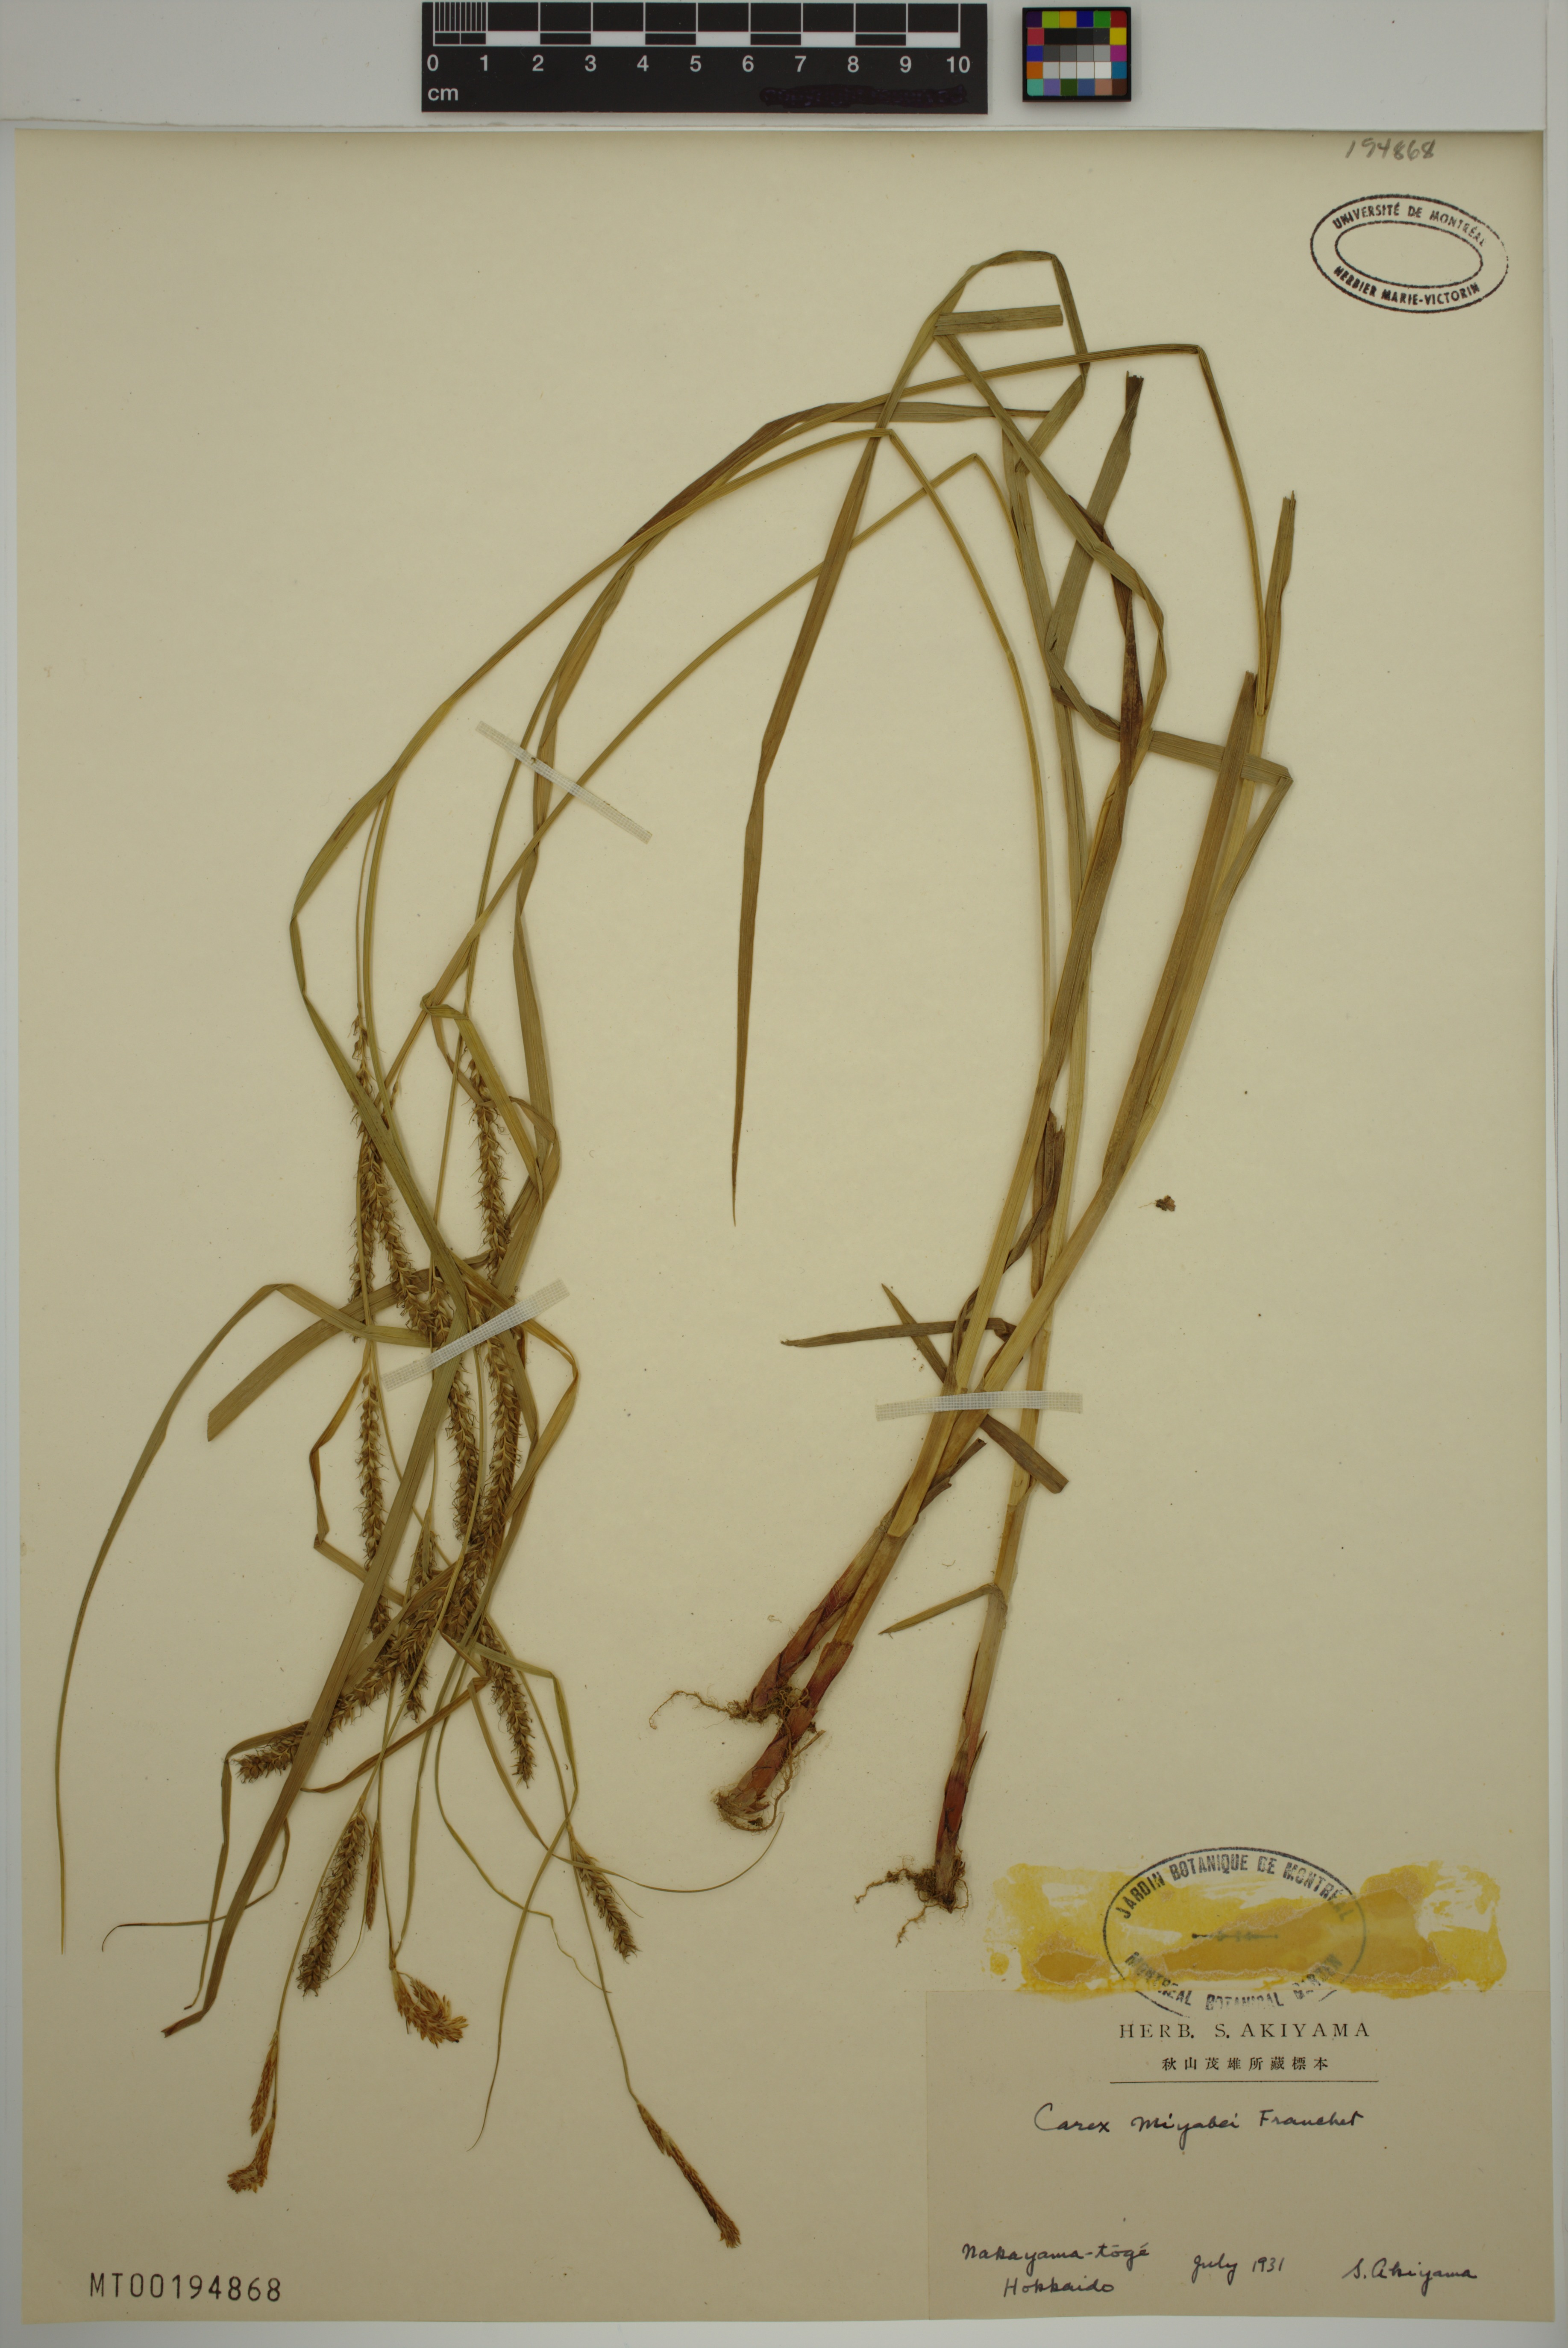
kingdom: Plantae
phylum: Tracheophyta
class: Liliopsida
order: Poales
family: Cyperaceae
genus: Carex
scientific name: Carex miyabei
